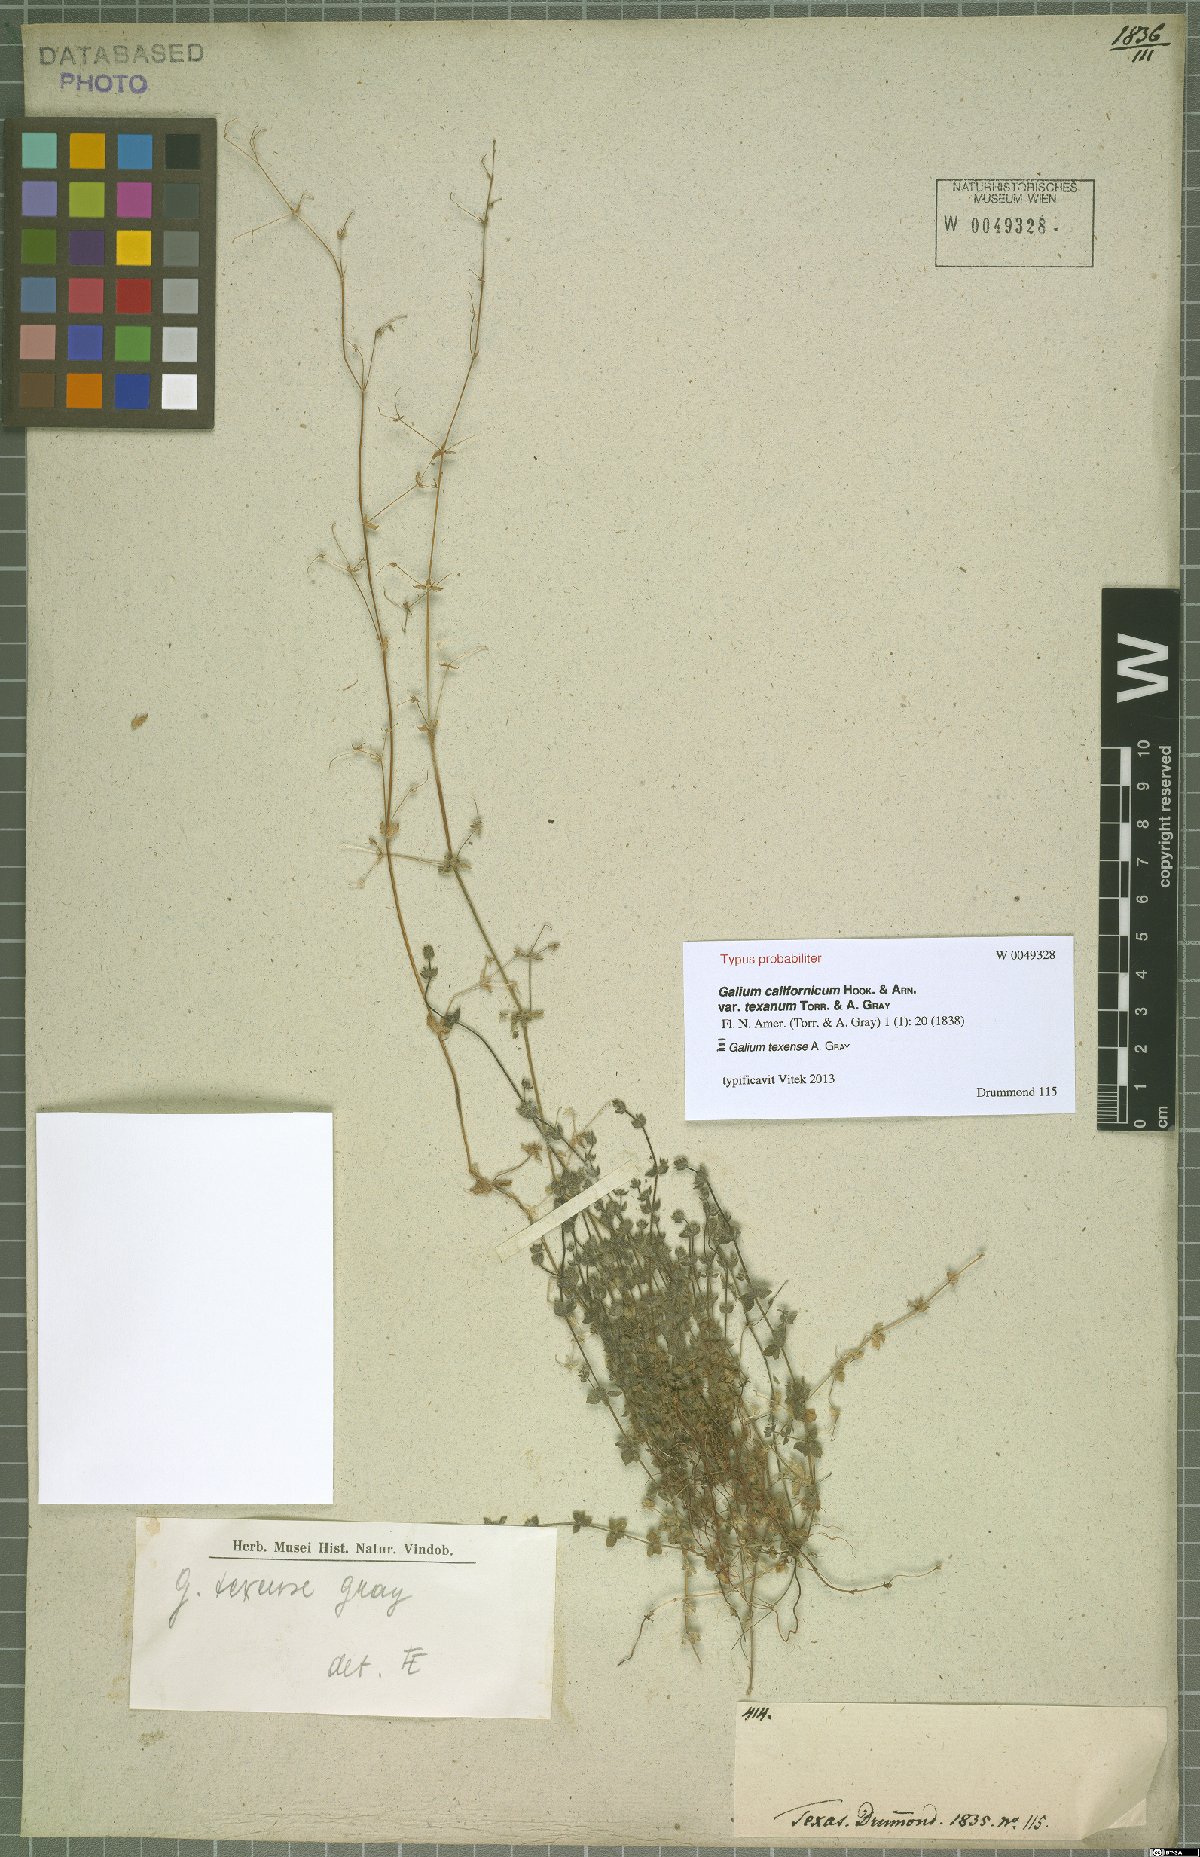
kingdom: Plantae
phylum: Tracheophyta
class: Magnoliopsida
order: Gentianales
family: Rubiaceae
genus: Galium
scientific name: Galium texense
